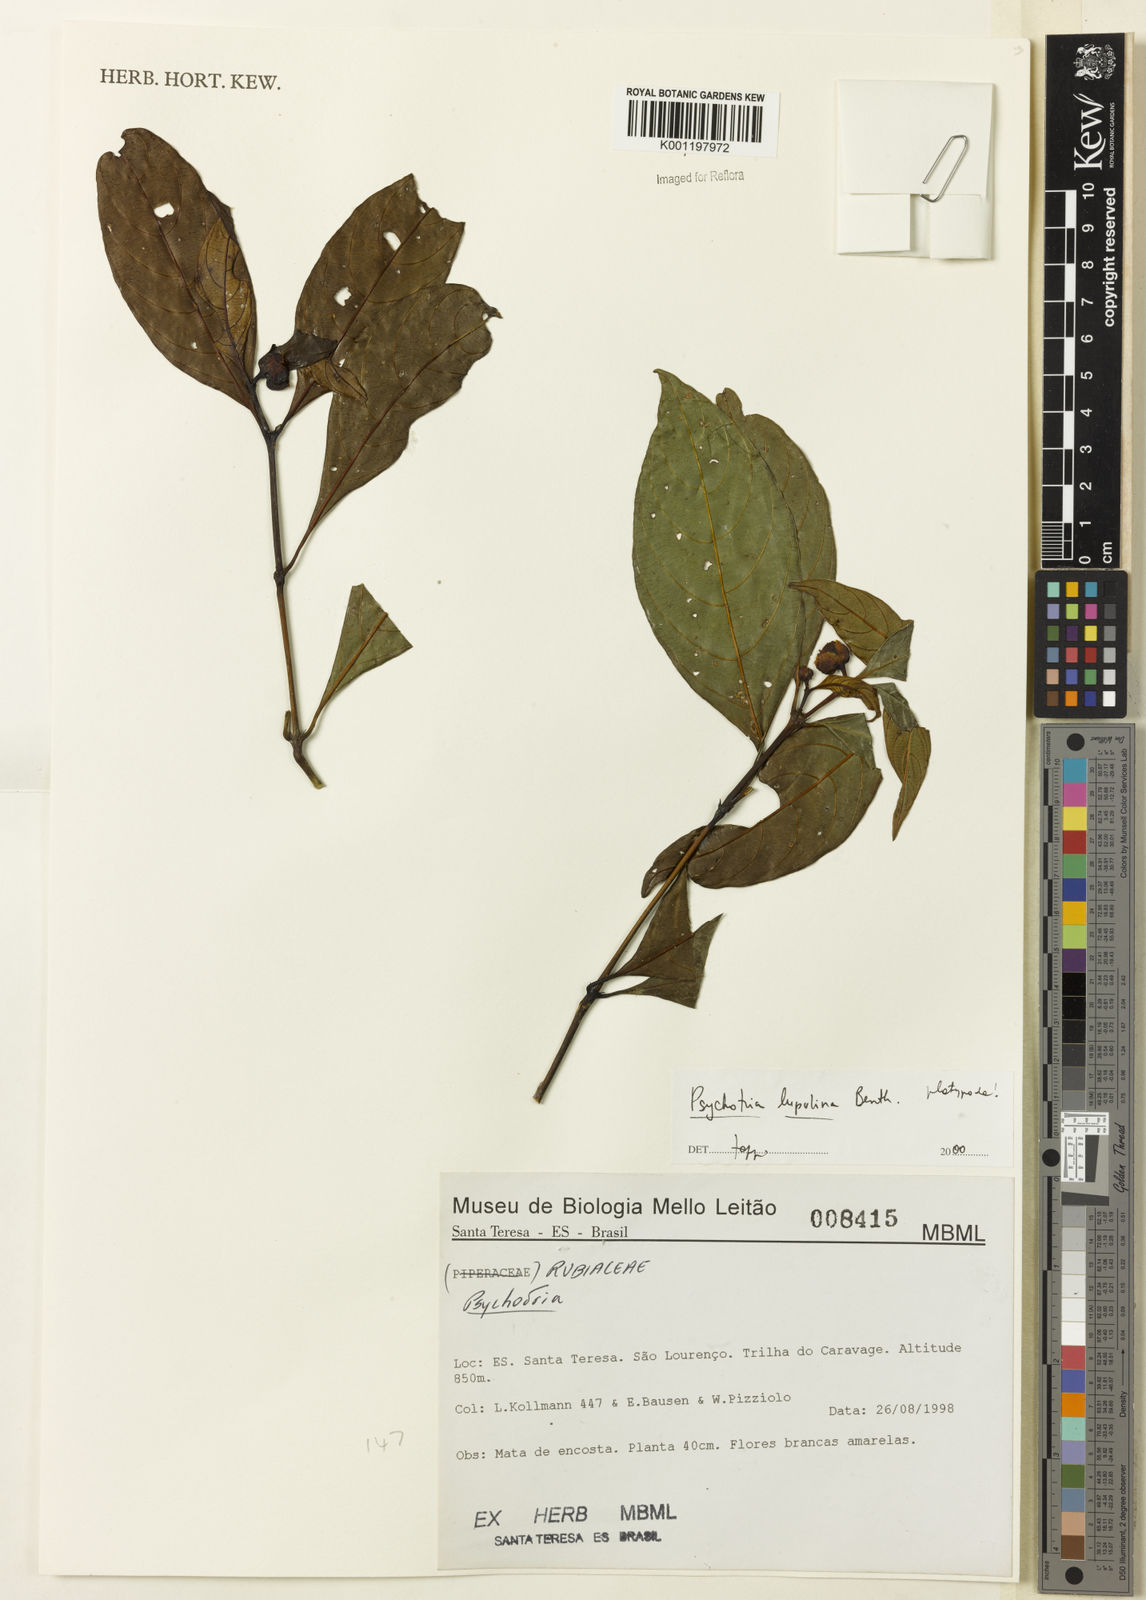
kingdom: Plantae
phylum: Tracheophyta
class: Magnoliopsida
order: Gentianales
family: Rubiaceae
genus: Palicourea
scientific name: Palicourea dichotoma
